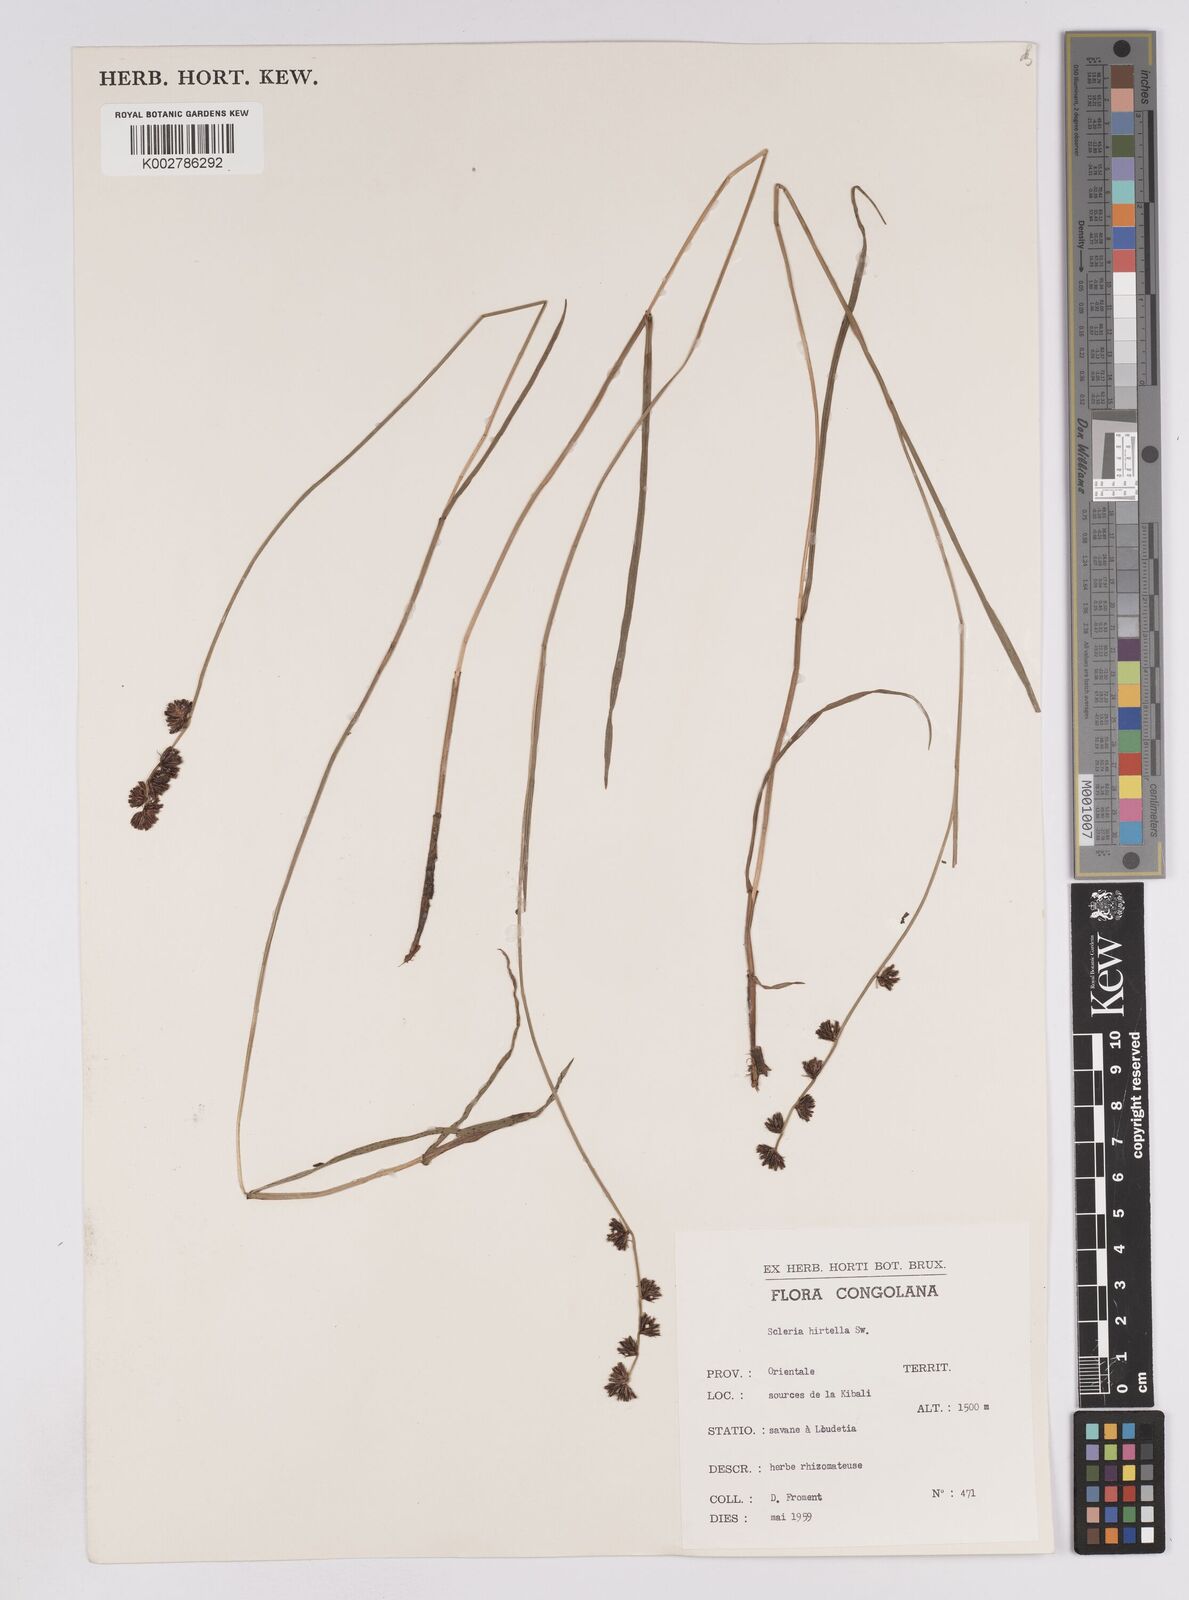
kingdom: Plantae
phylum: Tracheophyta
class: Liliopsida
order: Poales
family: Cyperaceae
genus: Scleria
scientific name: Scleria brownii
